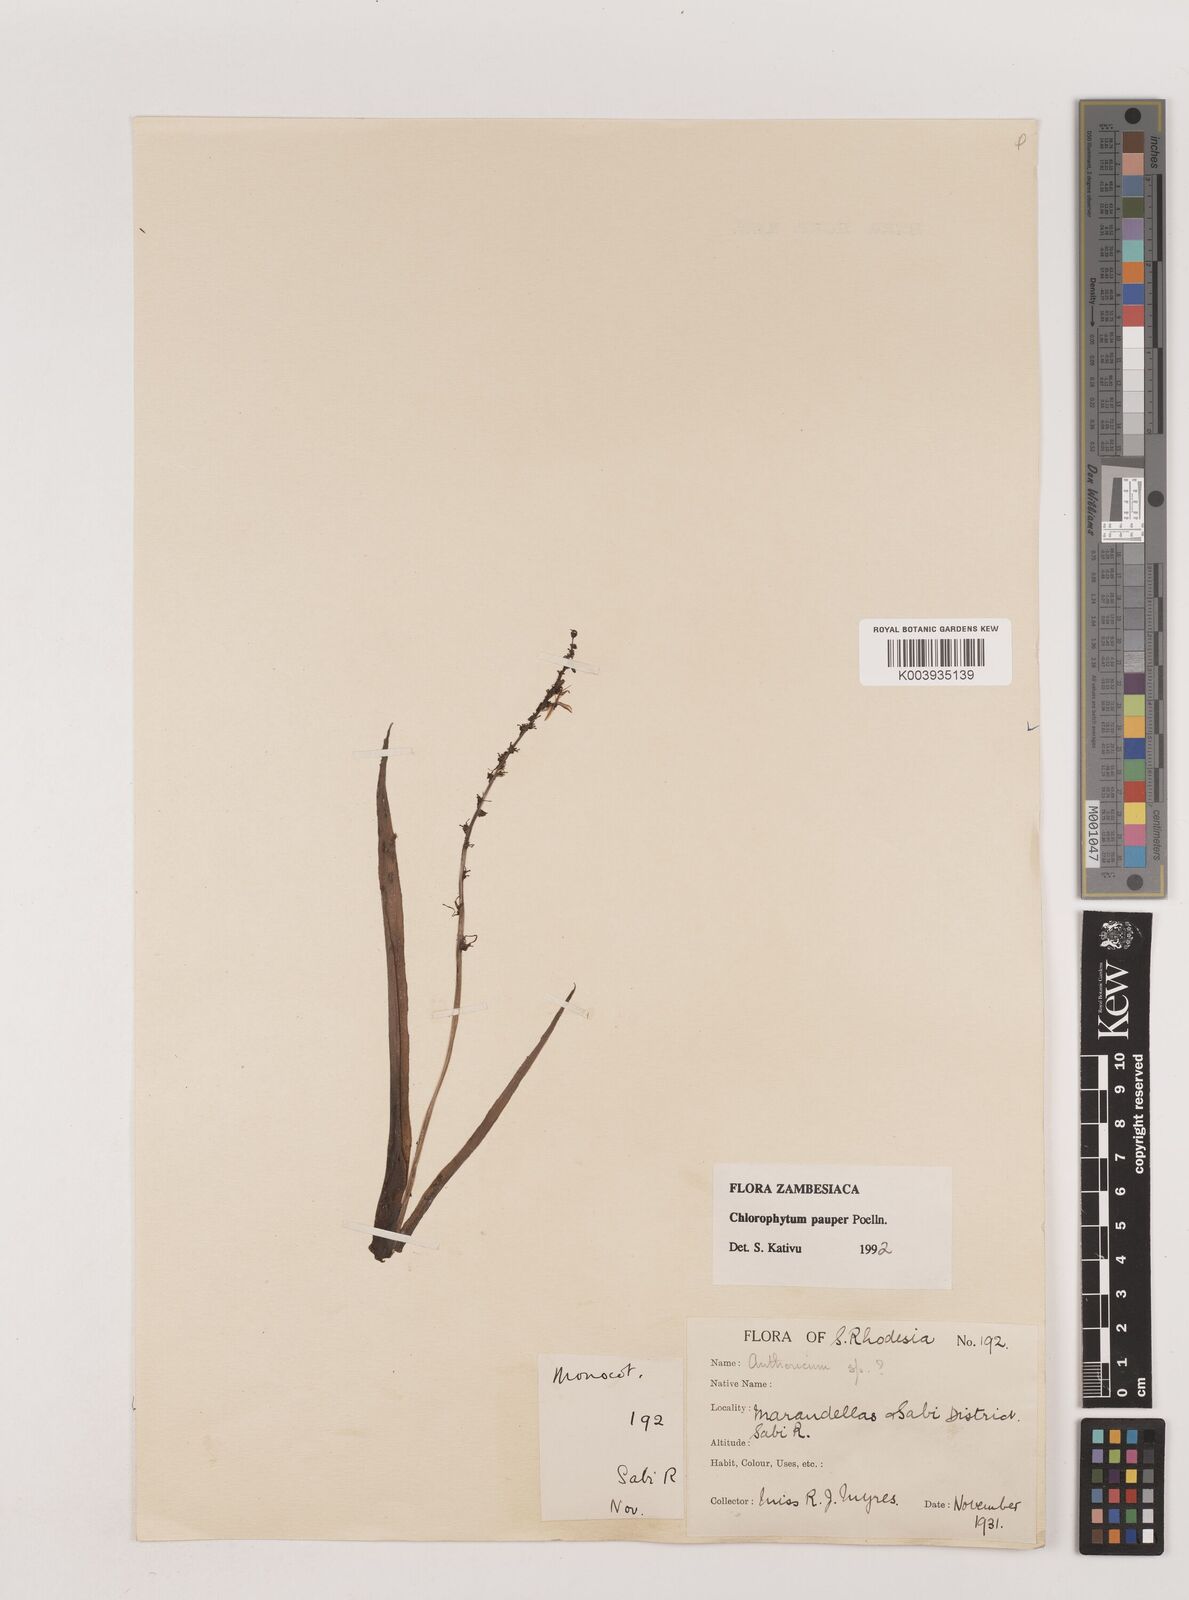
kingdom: Plantae
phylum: Tracheophyta
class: Liliopsida
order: Asparagales
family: Asparagaceae
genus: Chlorophytum
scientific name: Chlorophytum pauper
